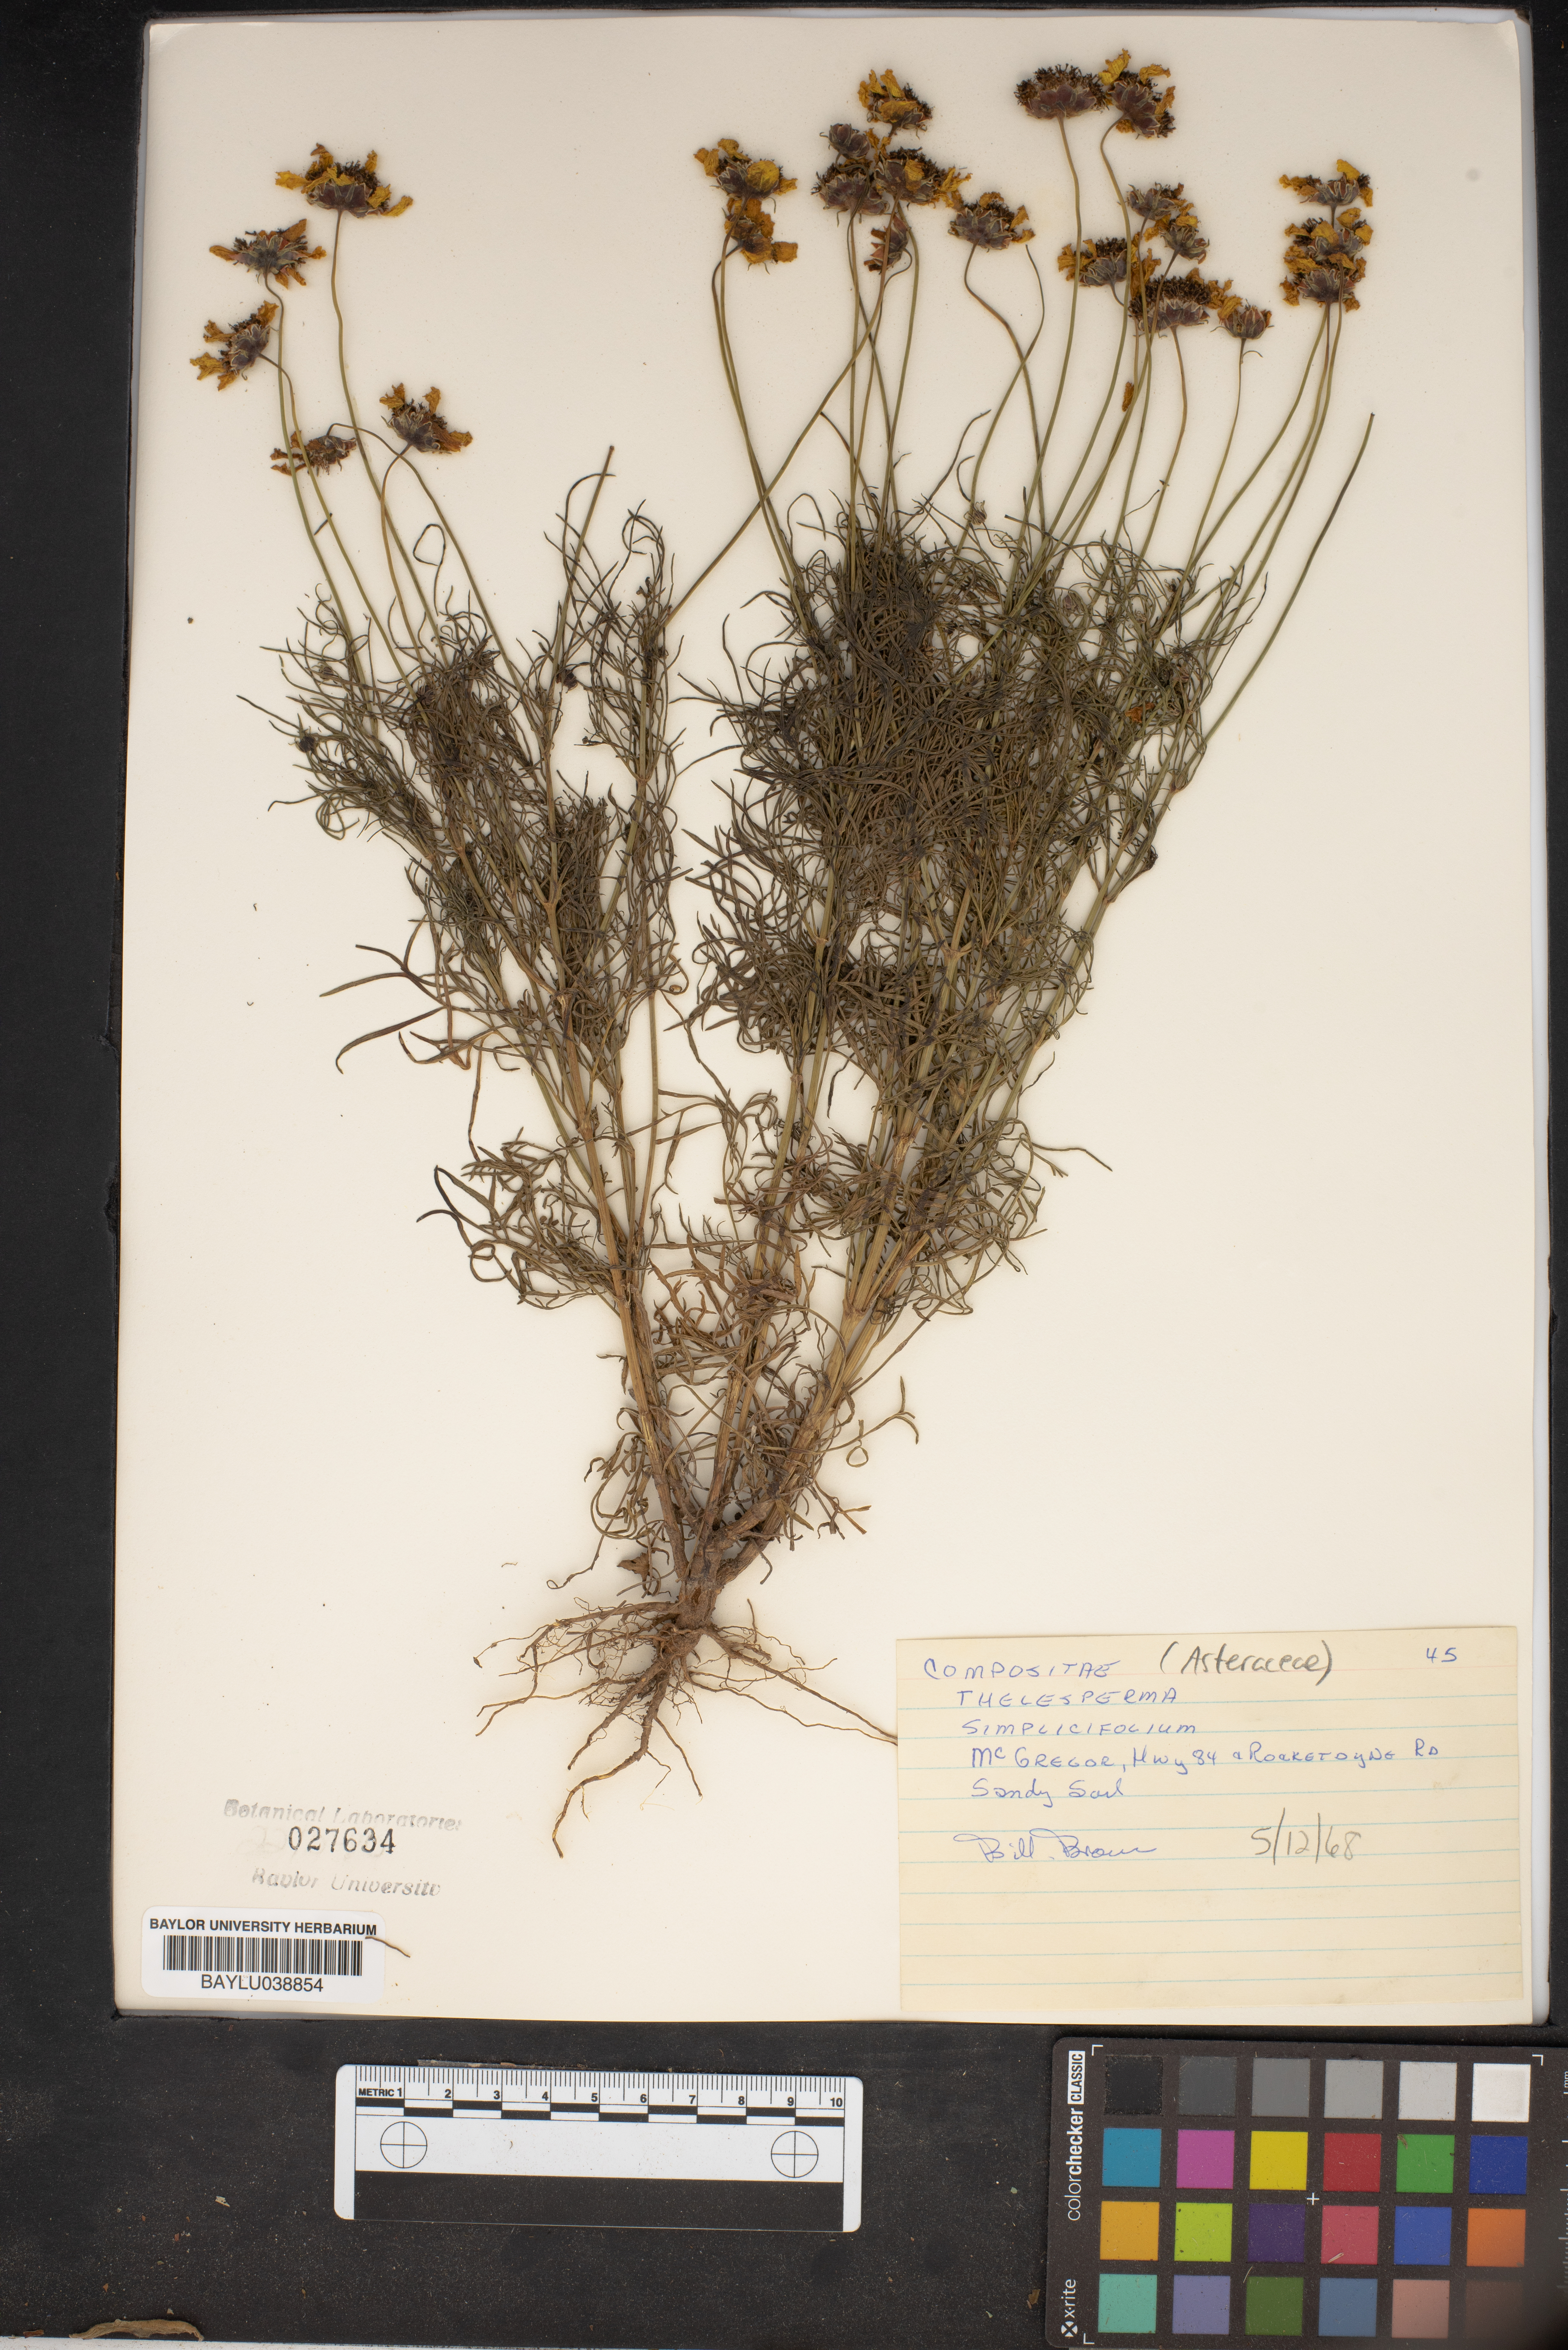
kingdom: Plantae
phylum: Tracheophyta
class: Magnoliopsida
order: Asterales
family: Asteraceae
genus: Thelesperma
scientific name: Thelesperma simplicifolium
